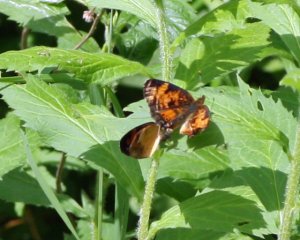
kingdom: Animalia
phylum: Arthropoda
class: Insecta
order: Lepidoptera
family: Nymphalidae
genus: Phyciodes
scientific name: Phyciodes tharos
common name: Northern Crescent
